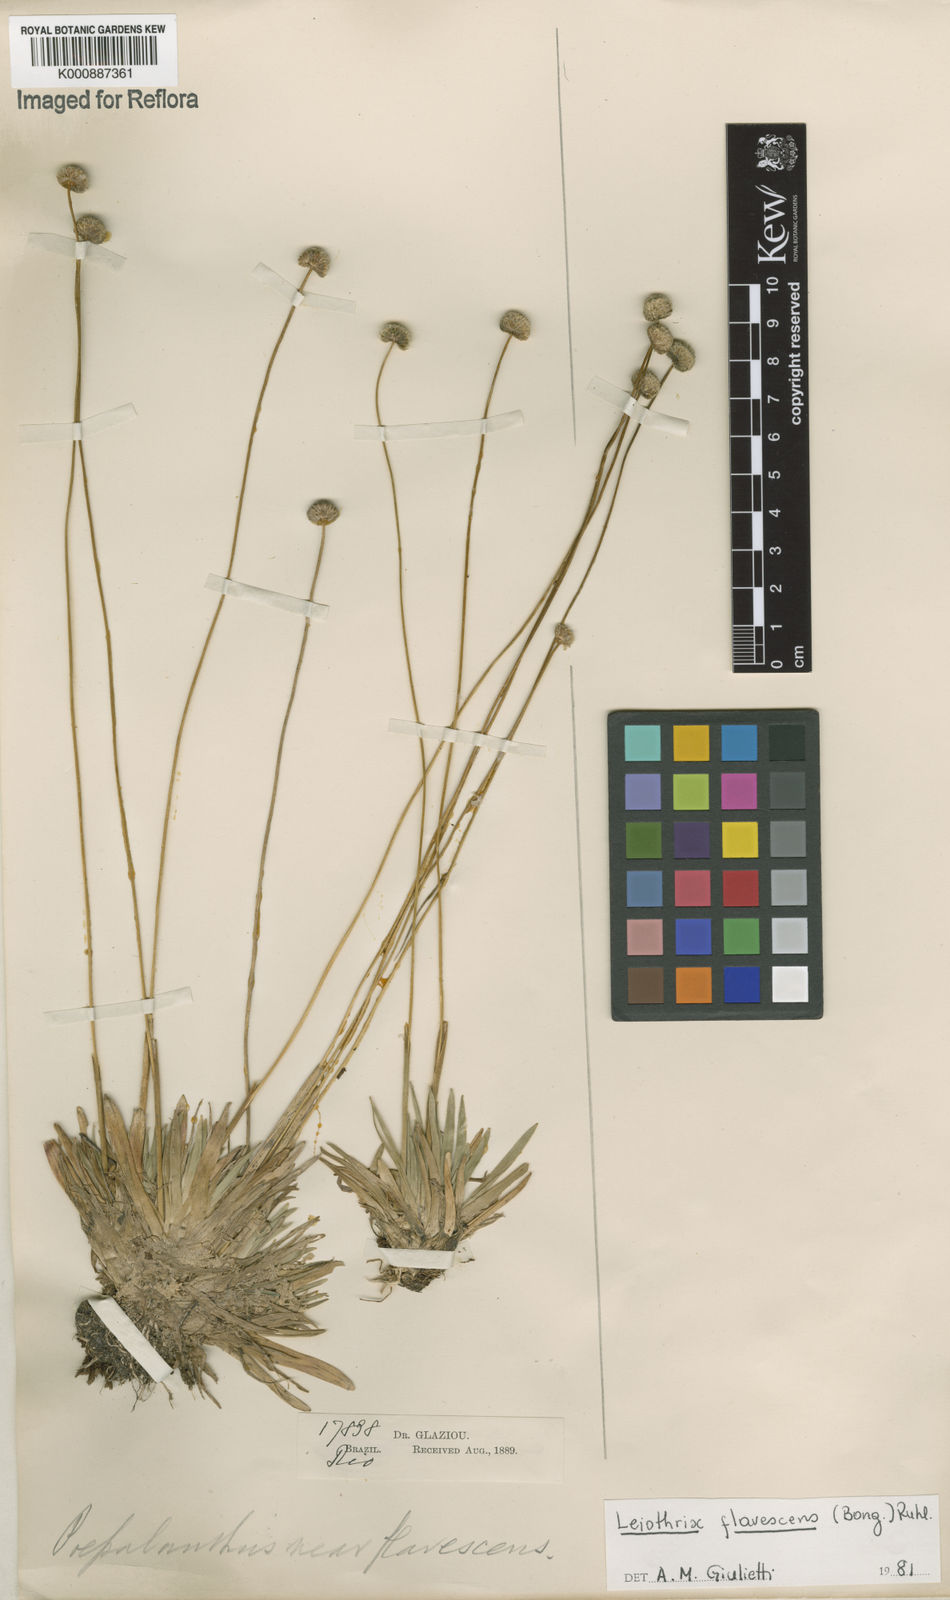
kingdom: Plantae
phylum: Tracheophyta
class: Liliopsida
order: Poales
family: Eriocaulaceae
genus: Leiothrix
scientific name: Leiothrix flavescens
